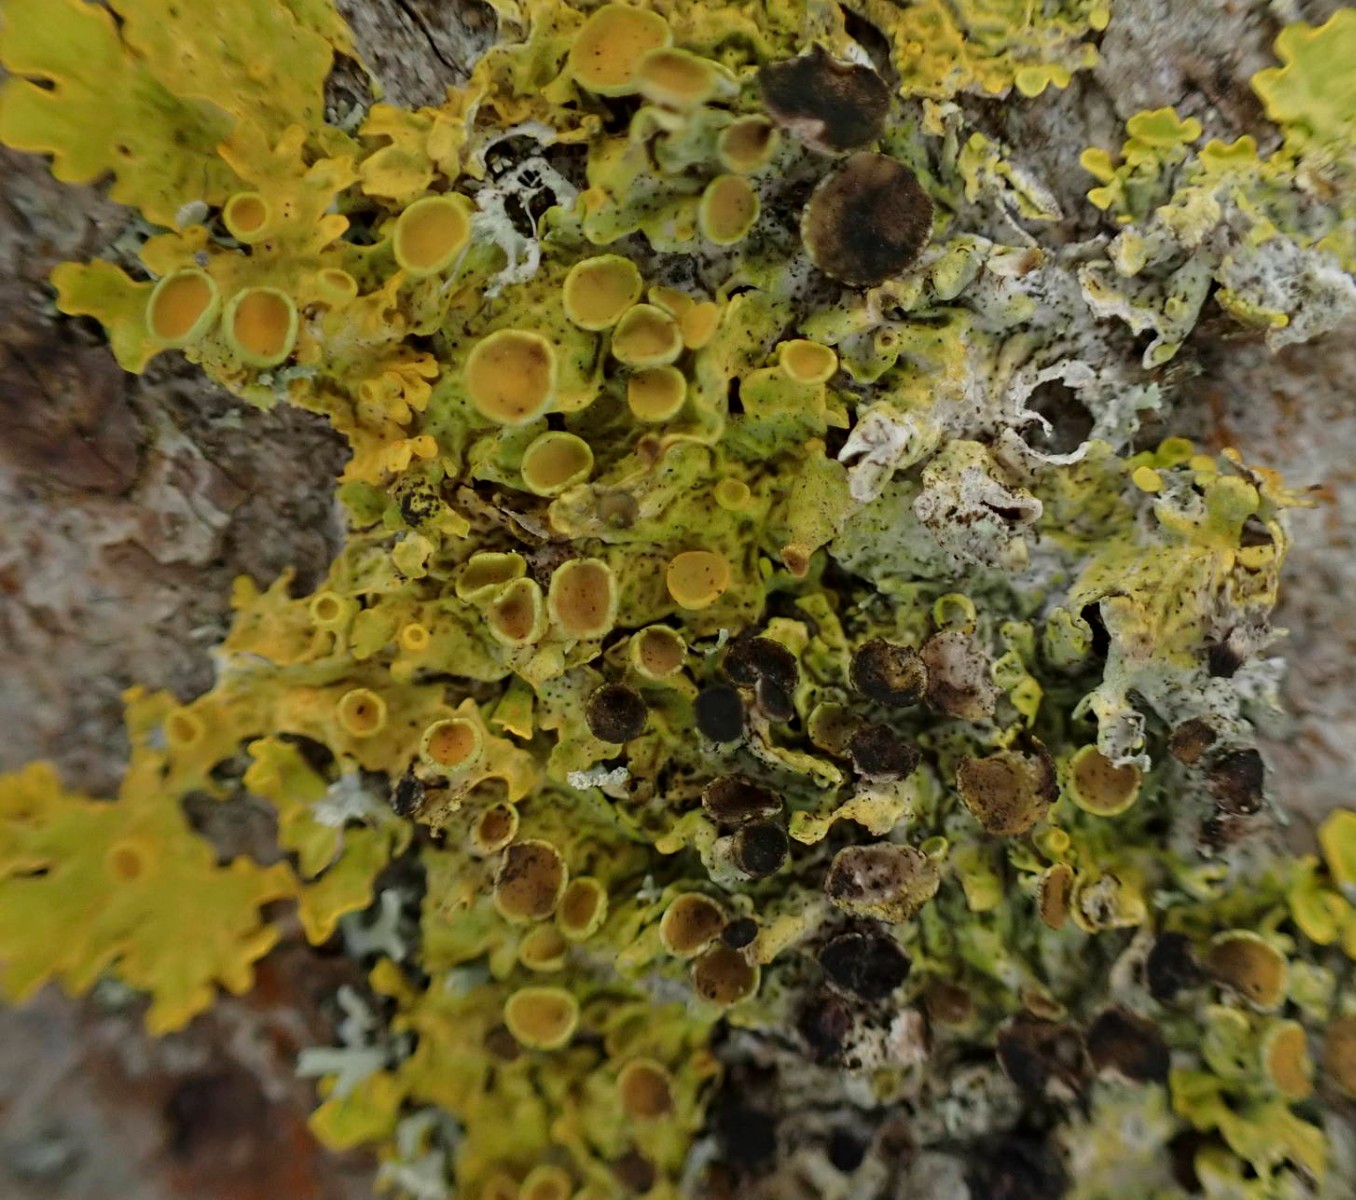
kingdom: Fungi
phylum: Ascomycota
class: Dothideomycetes
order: Mycosphaerellales
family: Teratosphaeriaceae
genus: Xanthoriicola
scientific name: Xanthoriicola physciae
